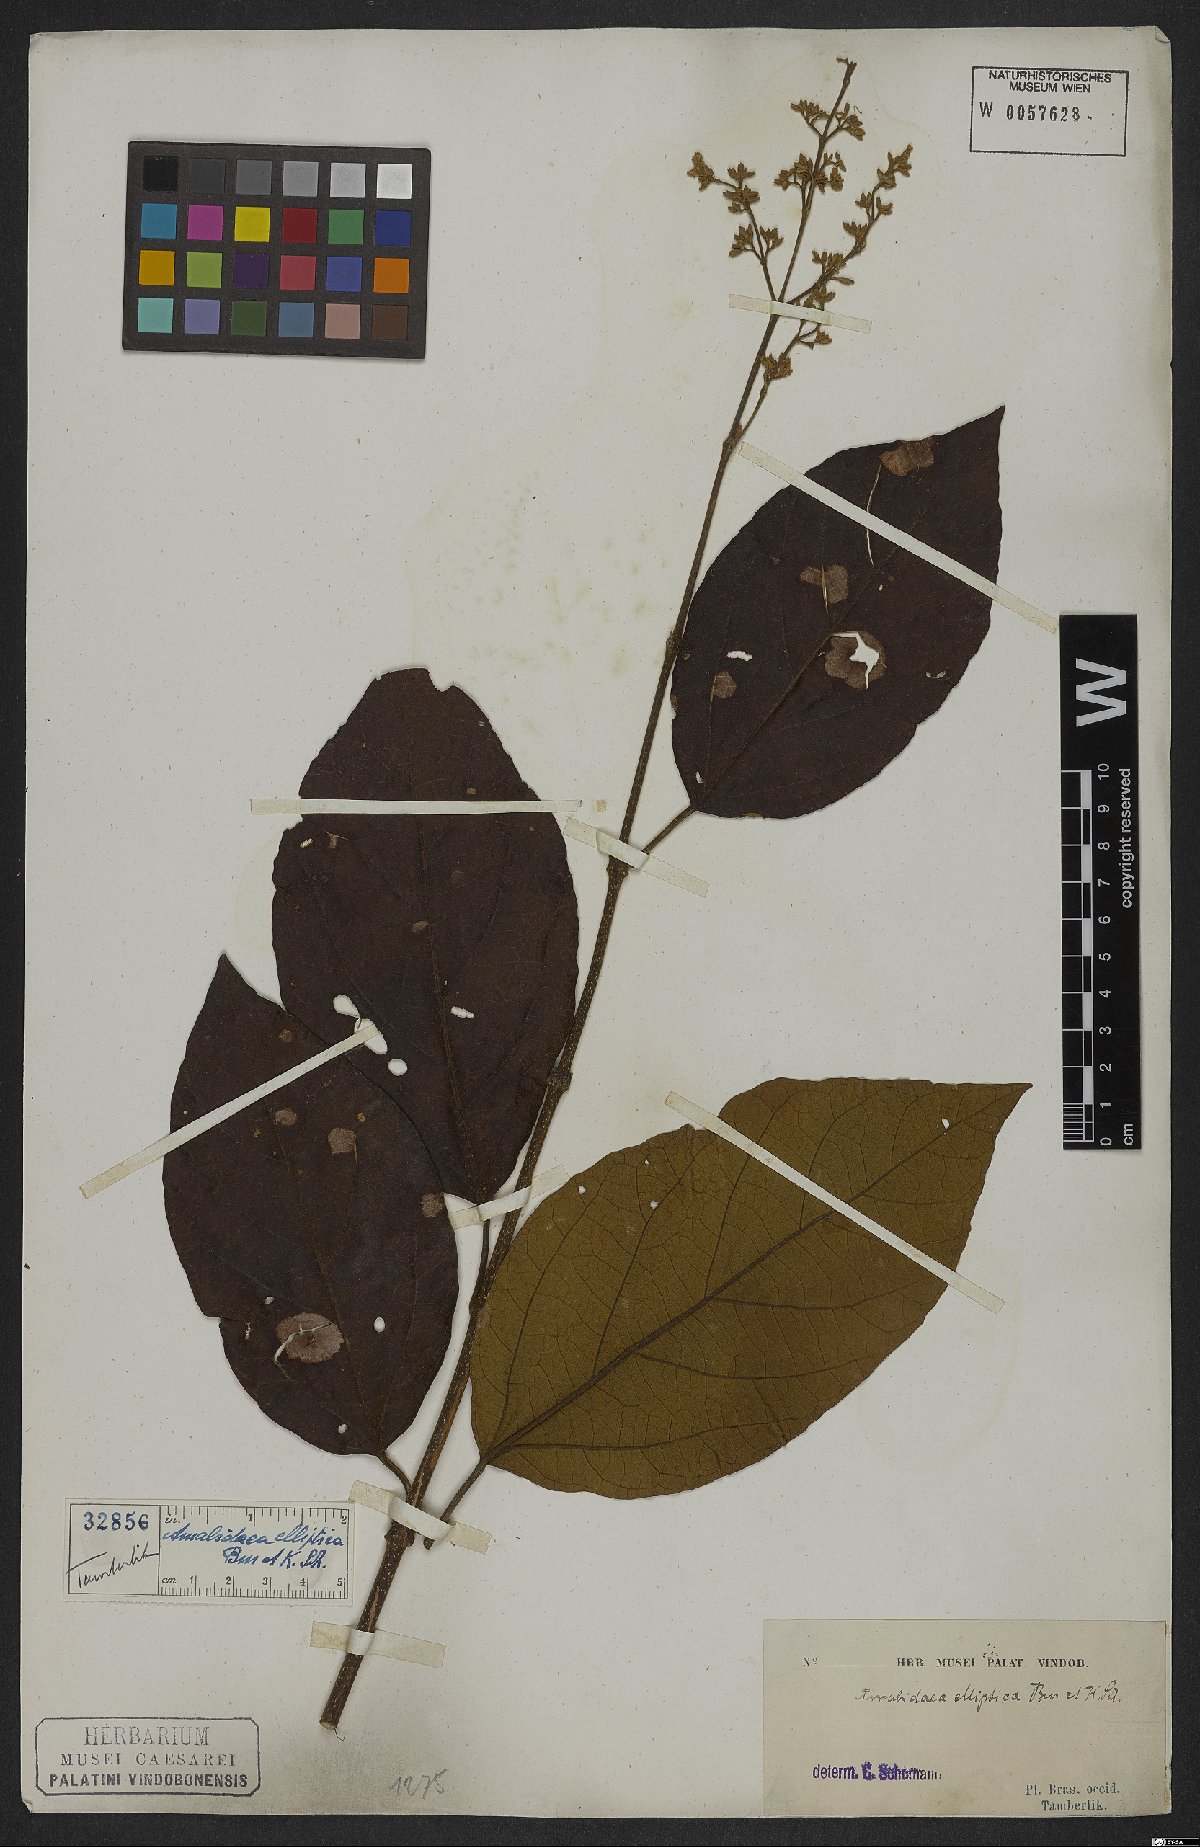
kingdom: Plantae
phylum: Tracheophyta
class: Magnoliopsida
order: Lamiales
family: Bignoniaceae
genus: Xylophragma
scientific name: Xylophragma platyphyllum
